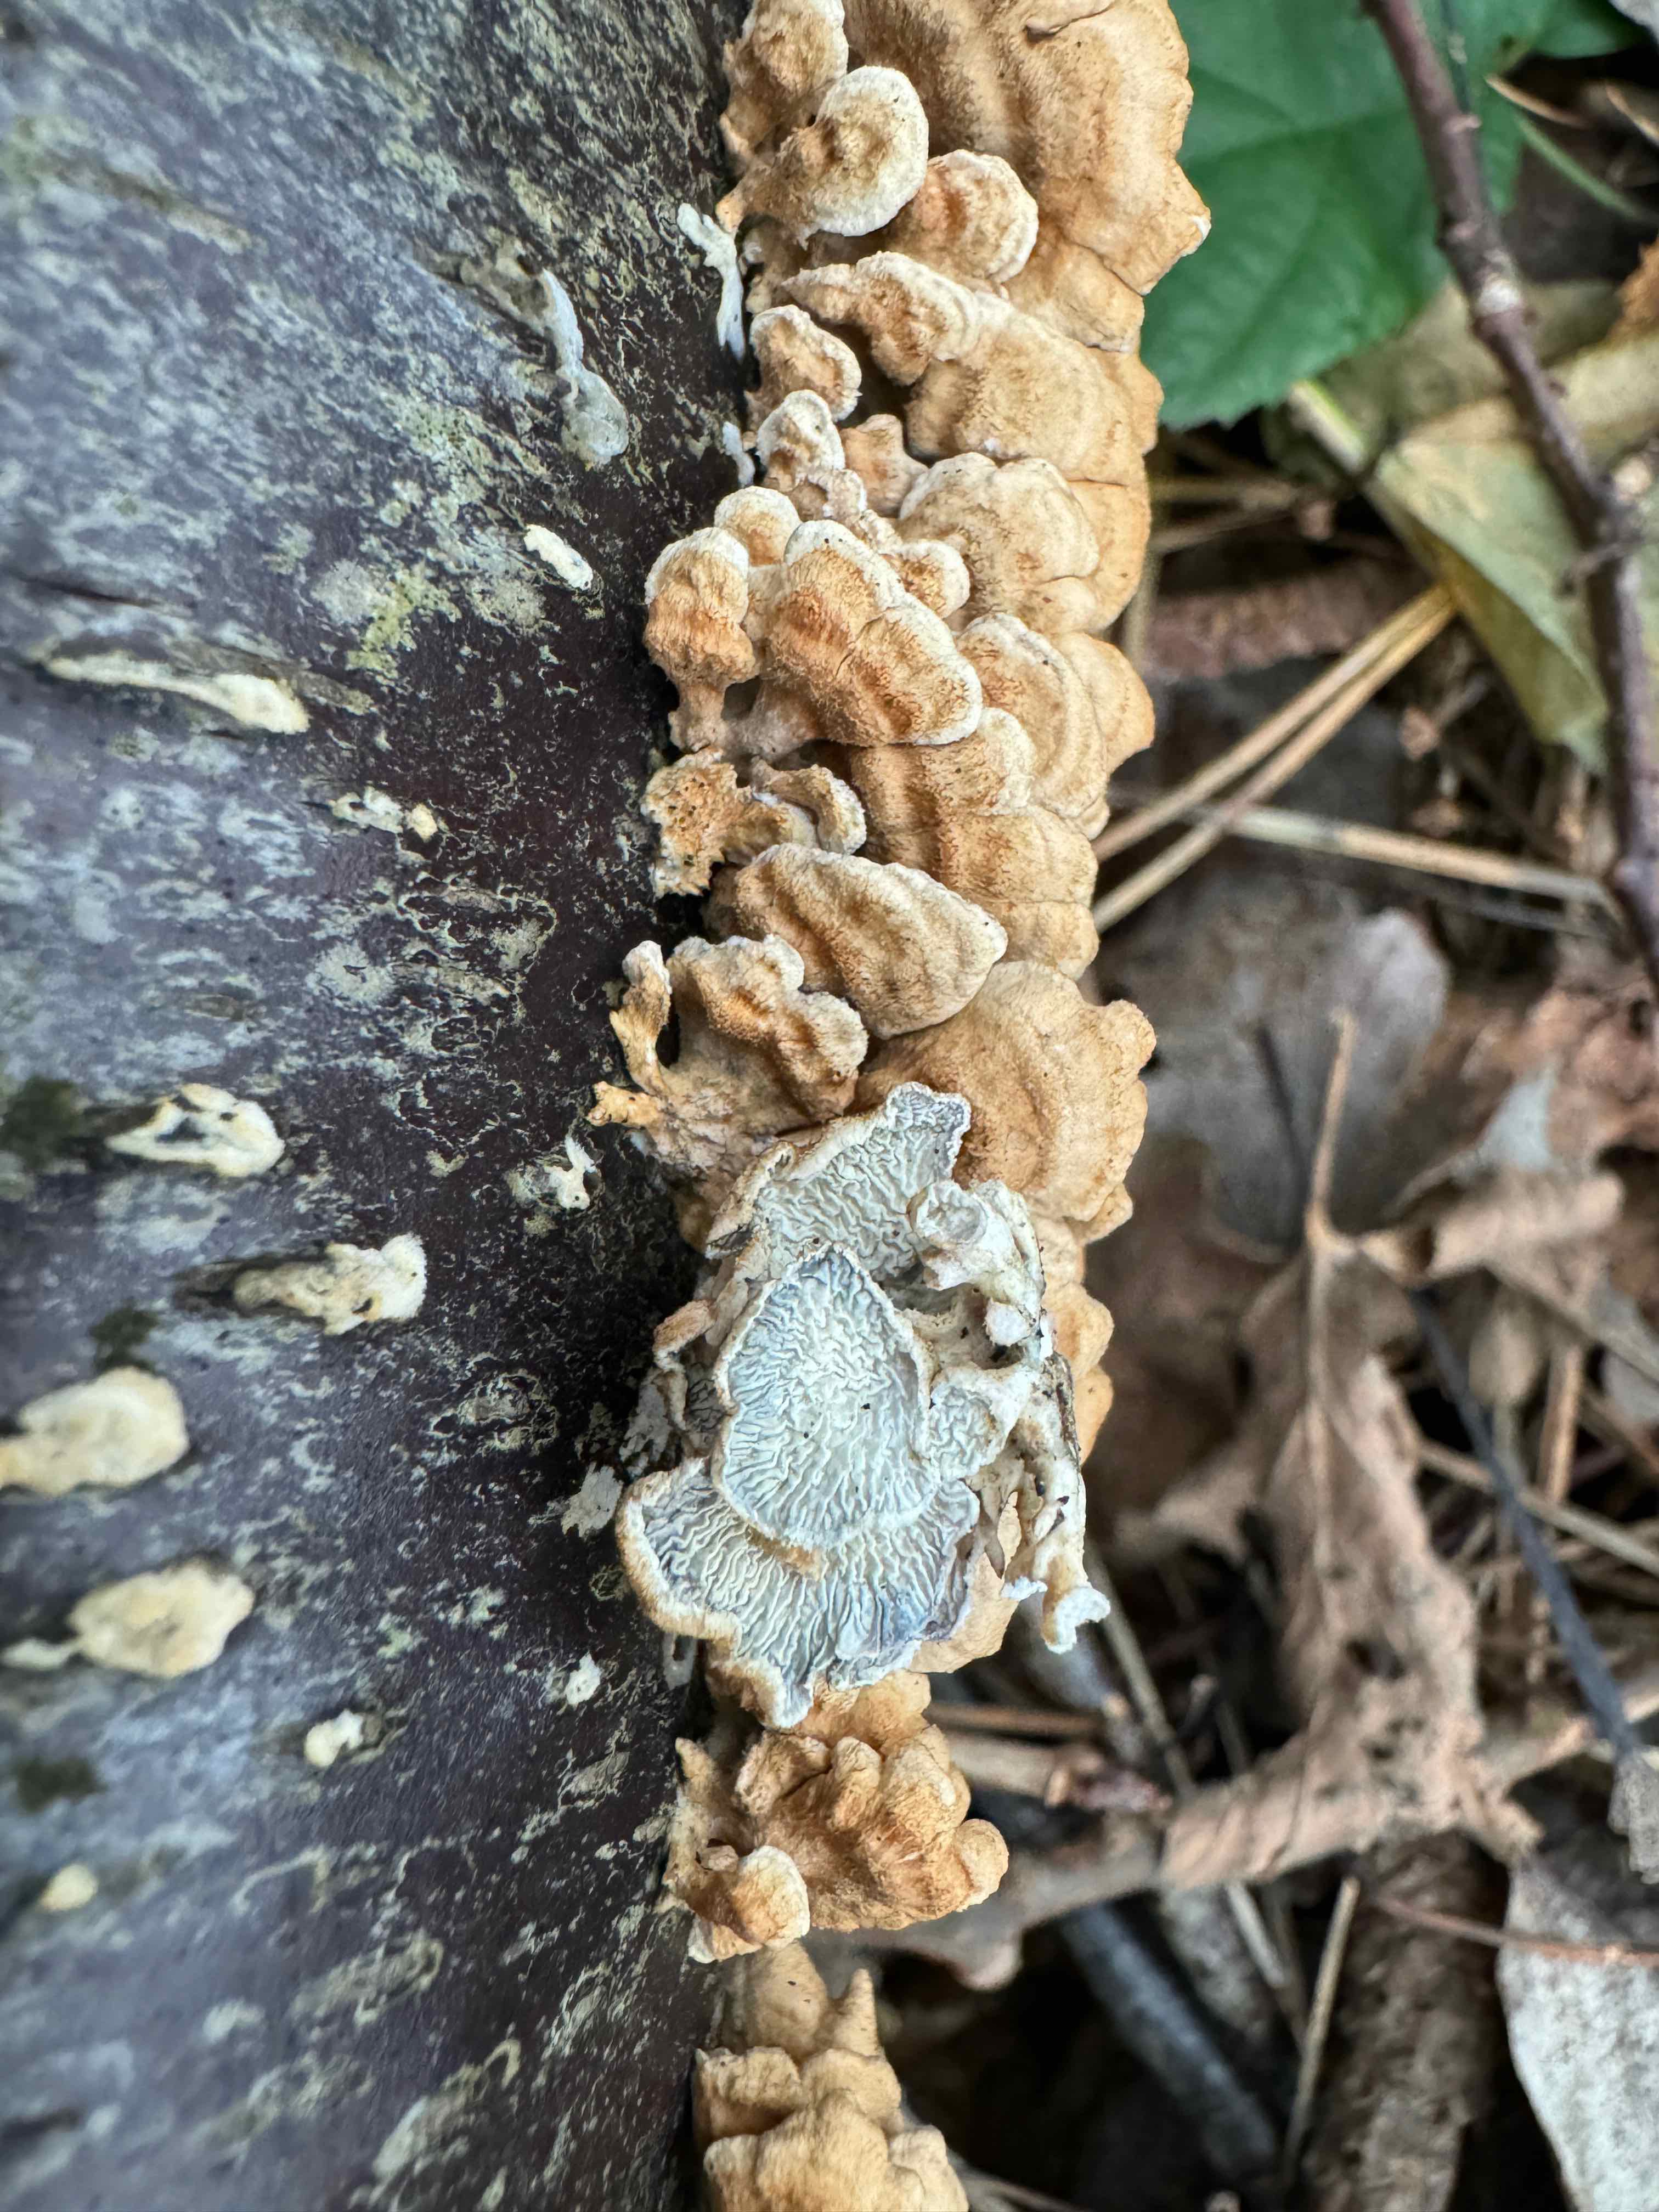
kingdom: Fungi
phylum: Basidiomycota
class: Agaricomycetes
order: Amylocorticiales
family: Amylocorticiaceae
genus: Plicaturopsis
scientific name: Plicaturopsis crispa
